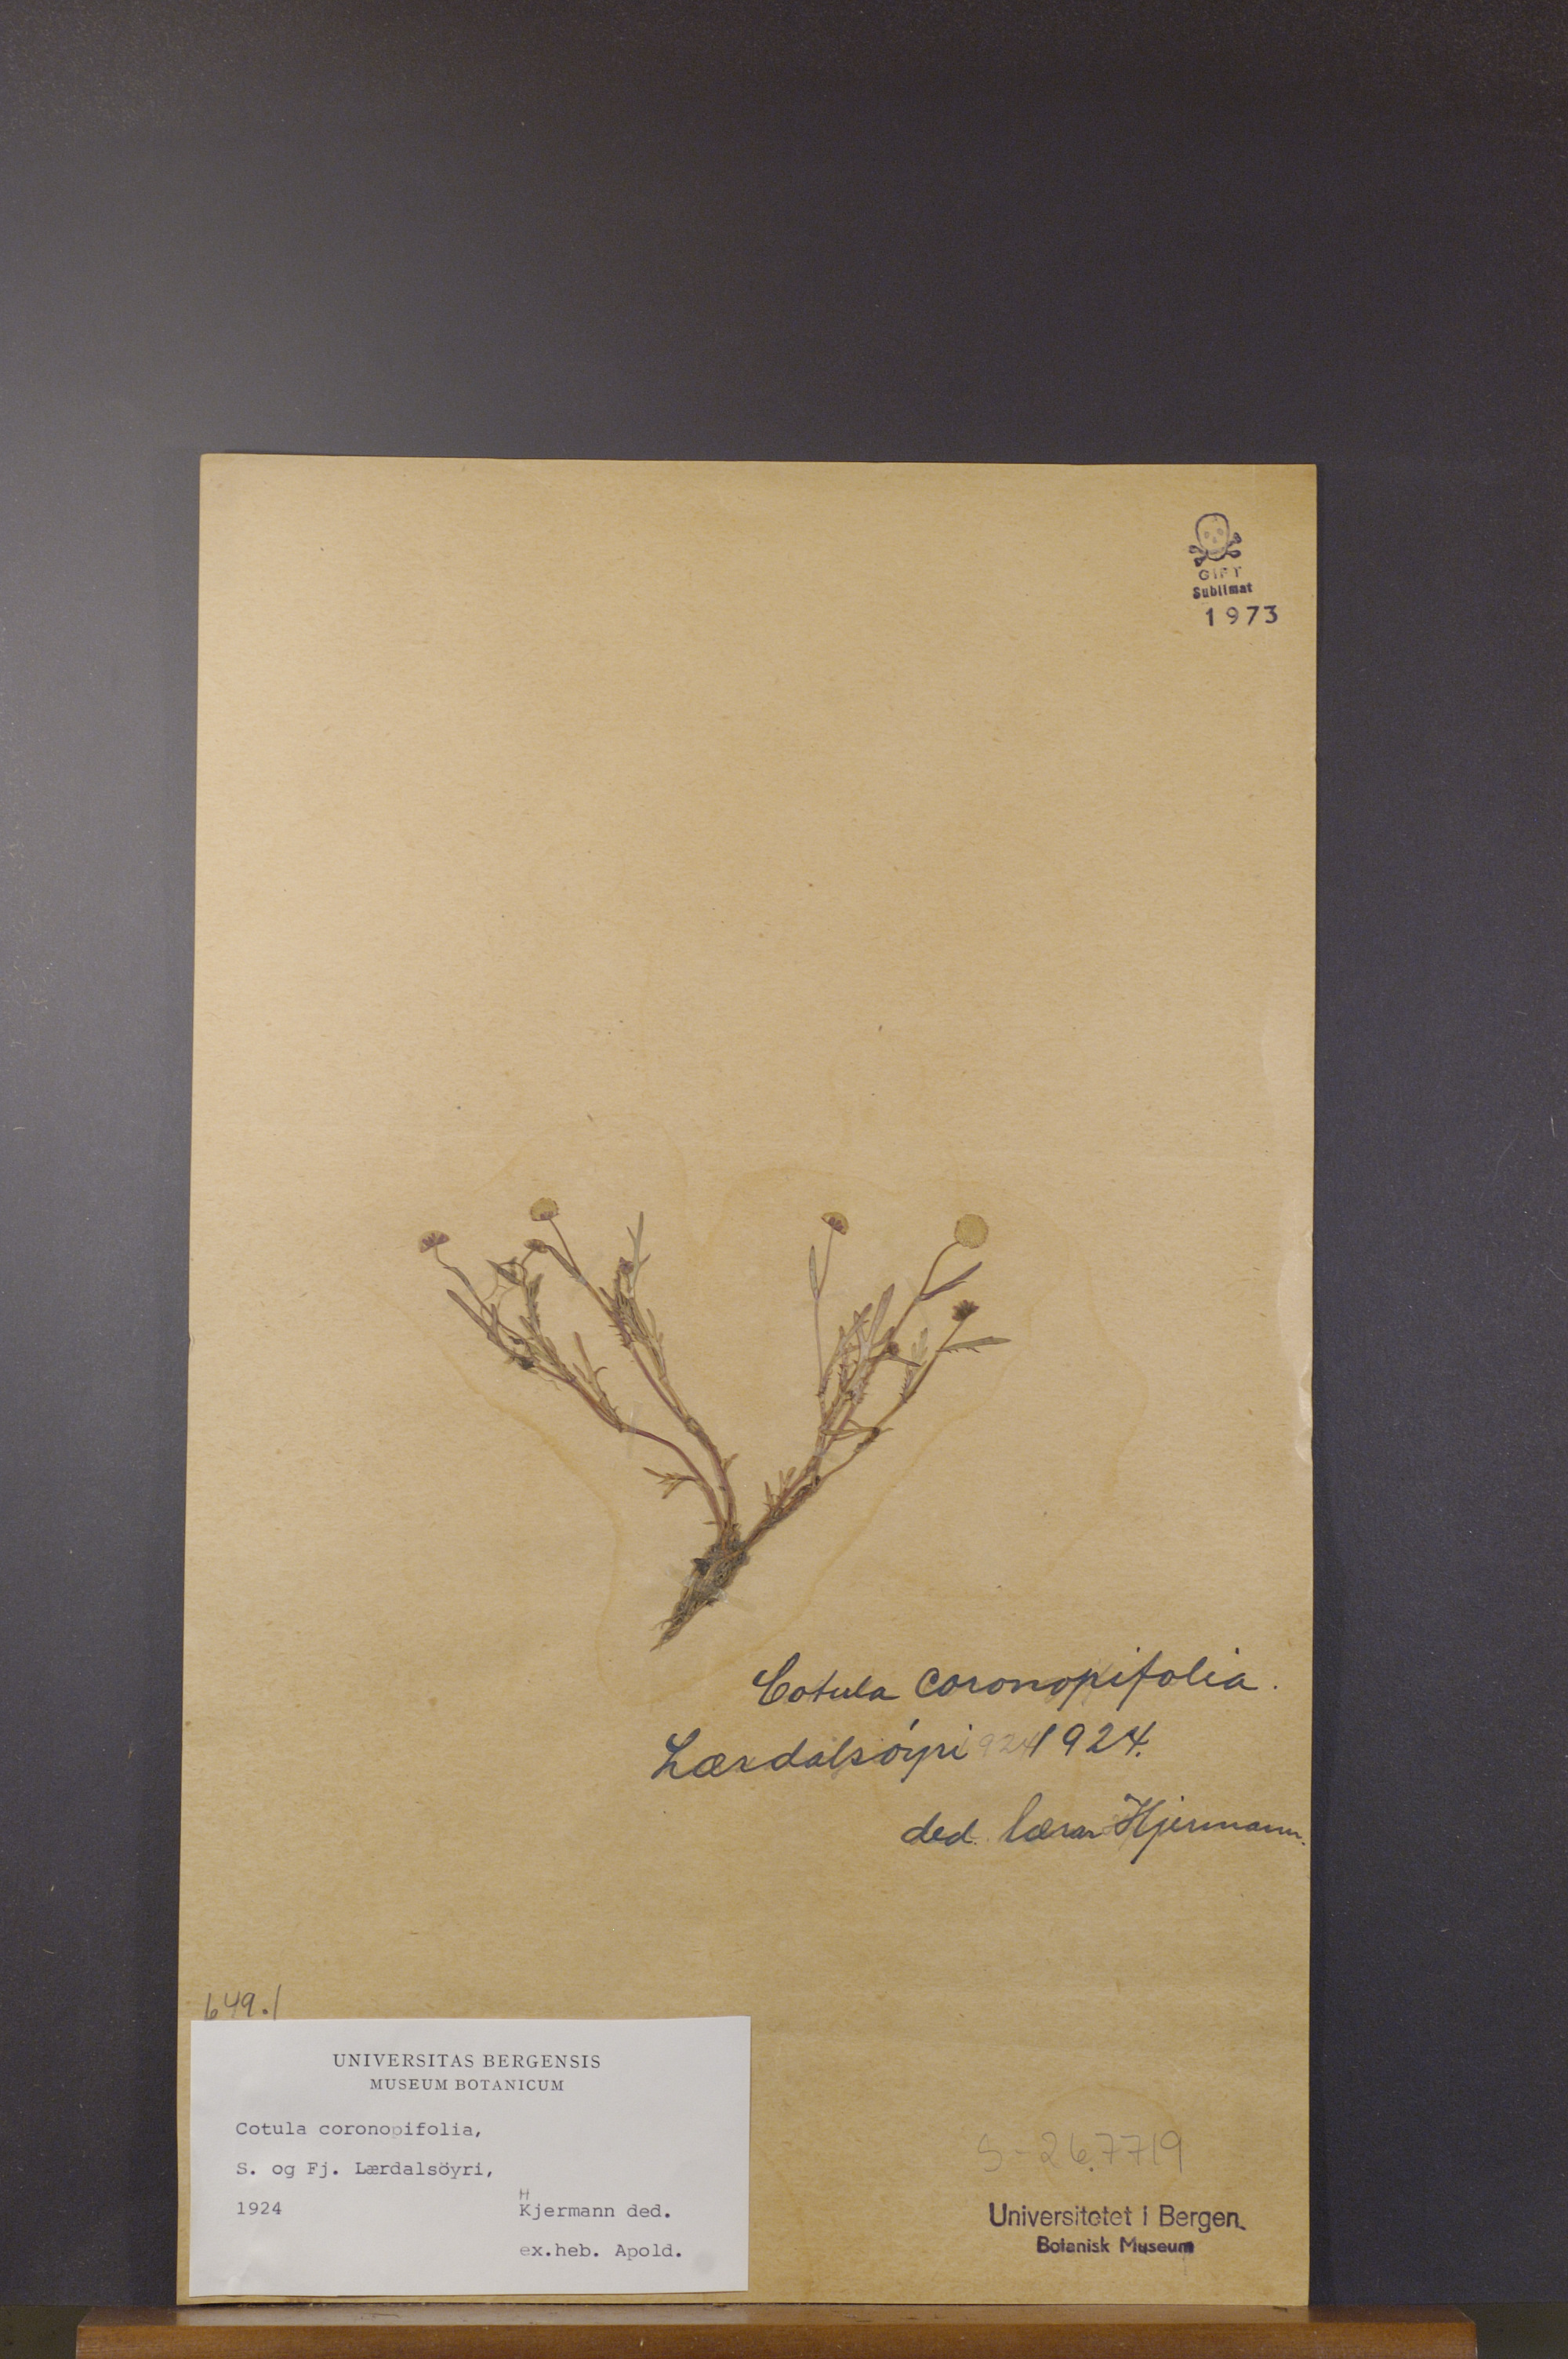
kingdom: Plantae
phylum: Tracheophyta
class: Magnoliopsida
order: Asterales
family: Asteraceae
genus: Cotula
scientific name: Cotula coronopifolia
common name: Buttonweed
